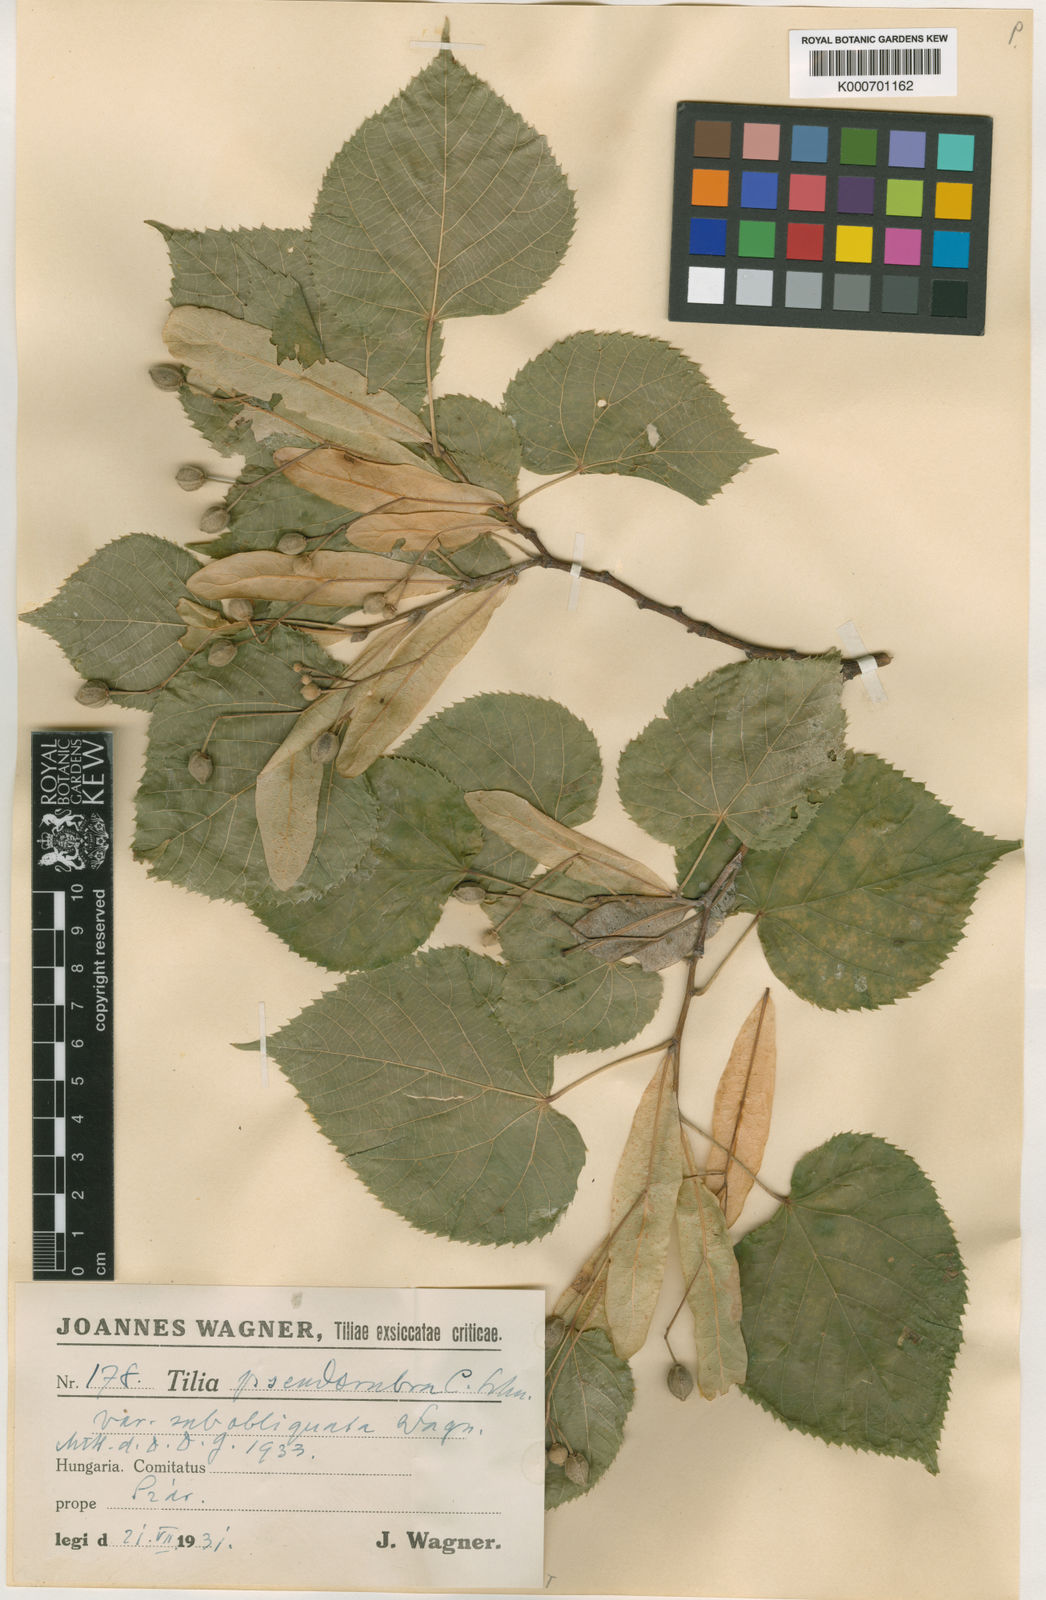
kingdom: Plantae
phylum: Tracheophyta
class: Magnoliopsida
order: Malvales
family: Malvaceae
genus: Tilia
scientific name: Tilia
